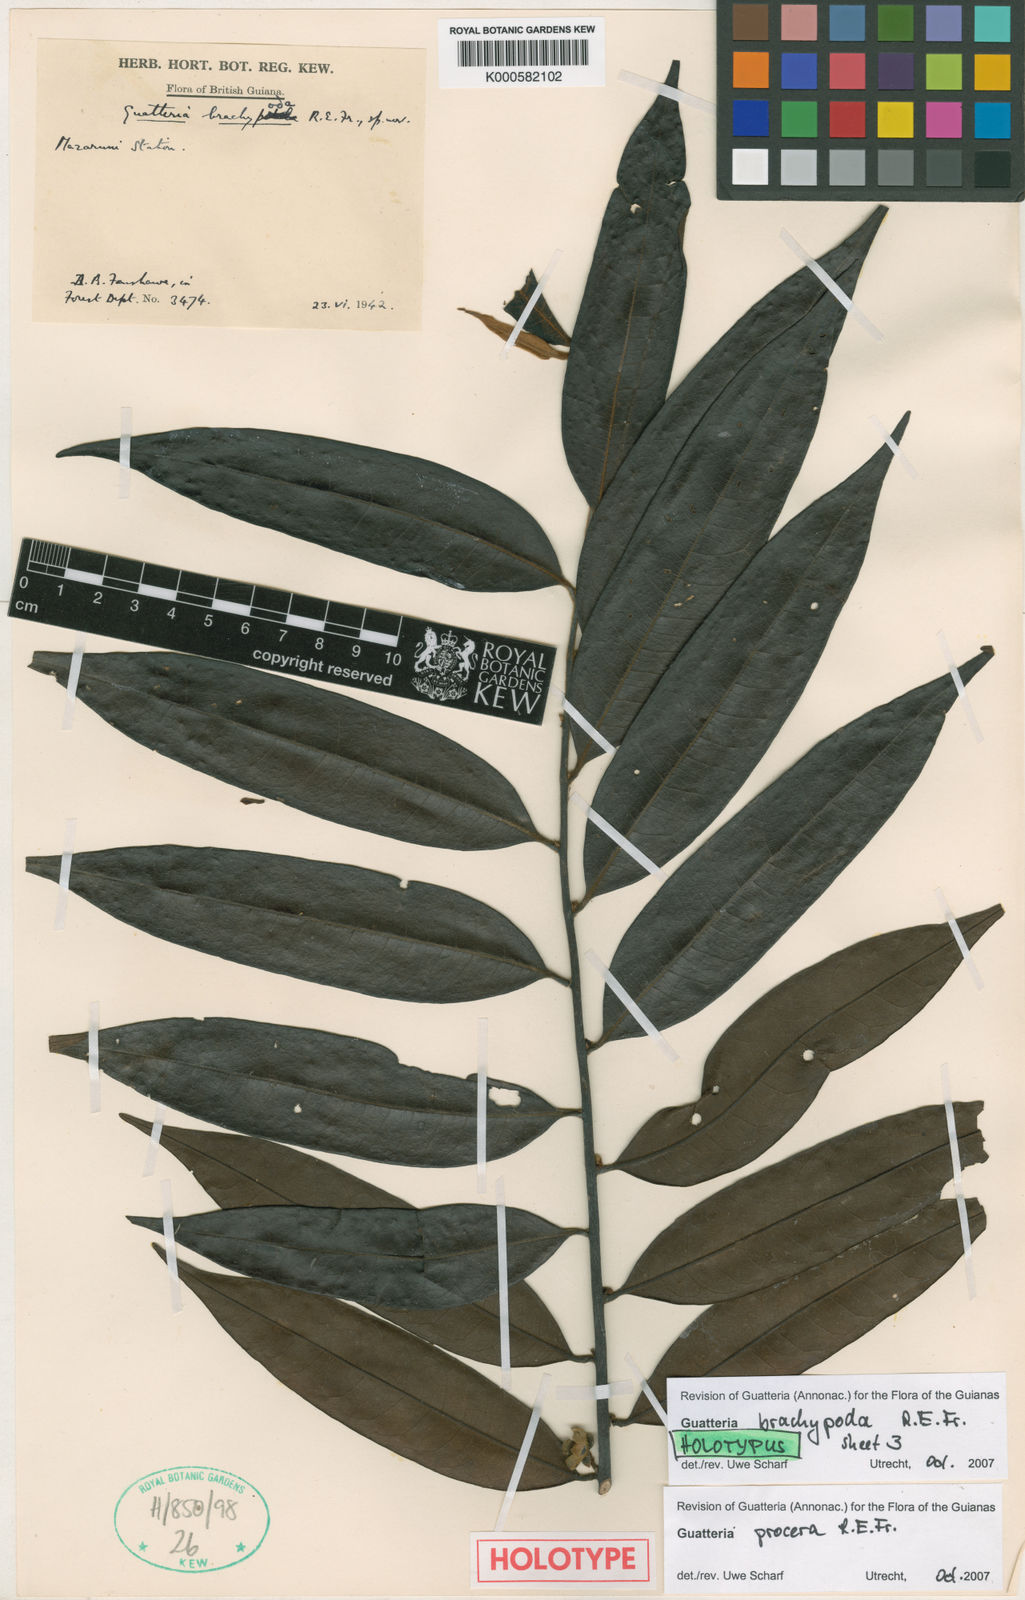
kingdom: Plantae
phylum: Tracheophyta
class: Magnoliopsida
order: Magnoliales
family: Annonaceae
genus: Guatteria
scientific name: Guatteria procera
